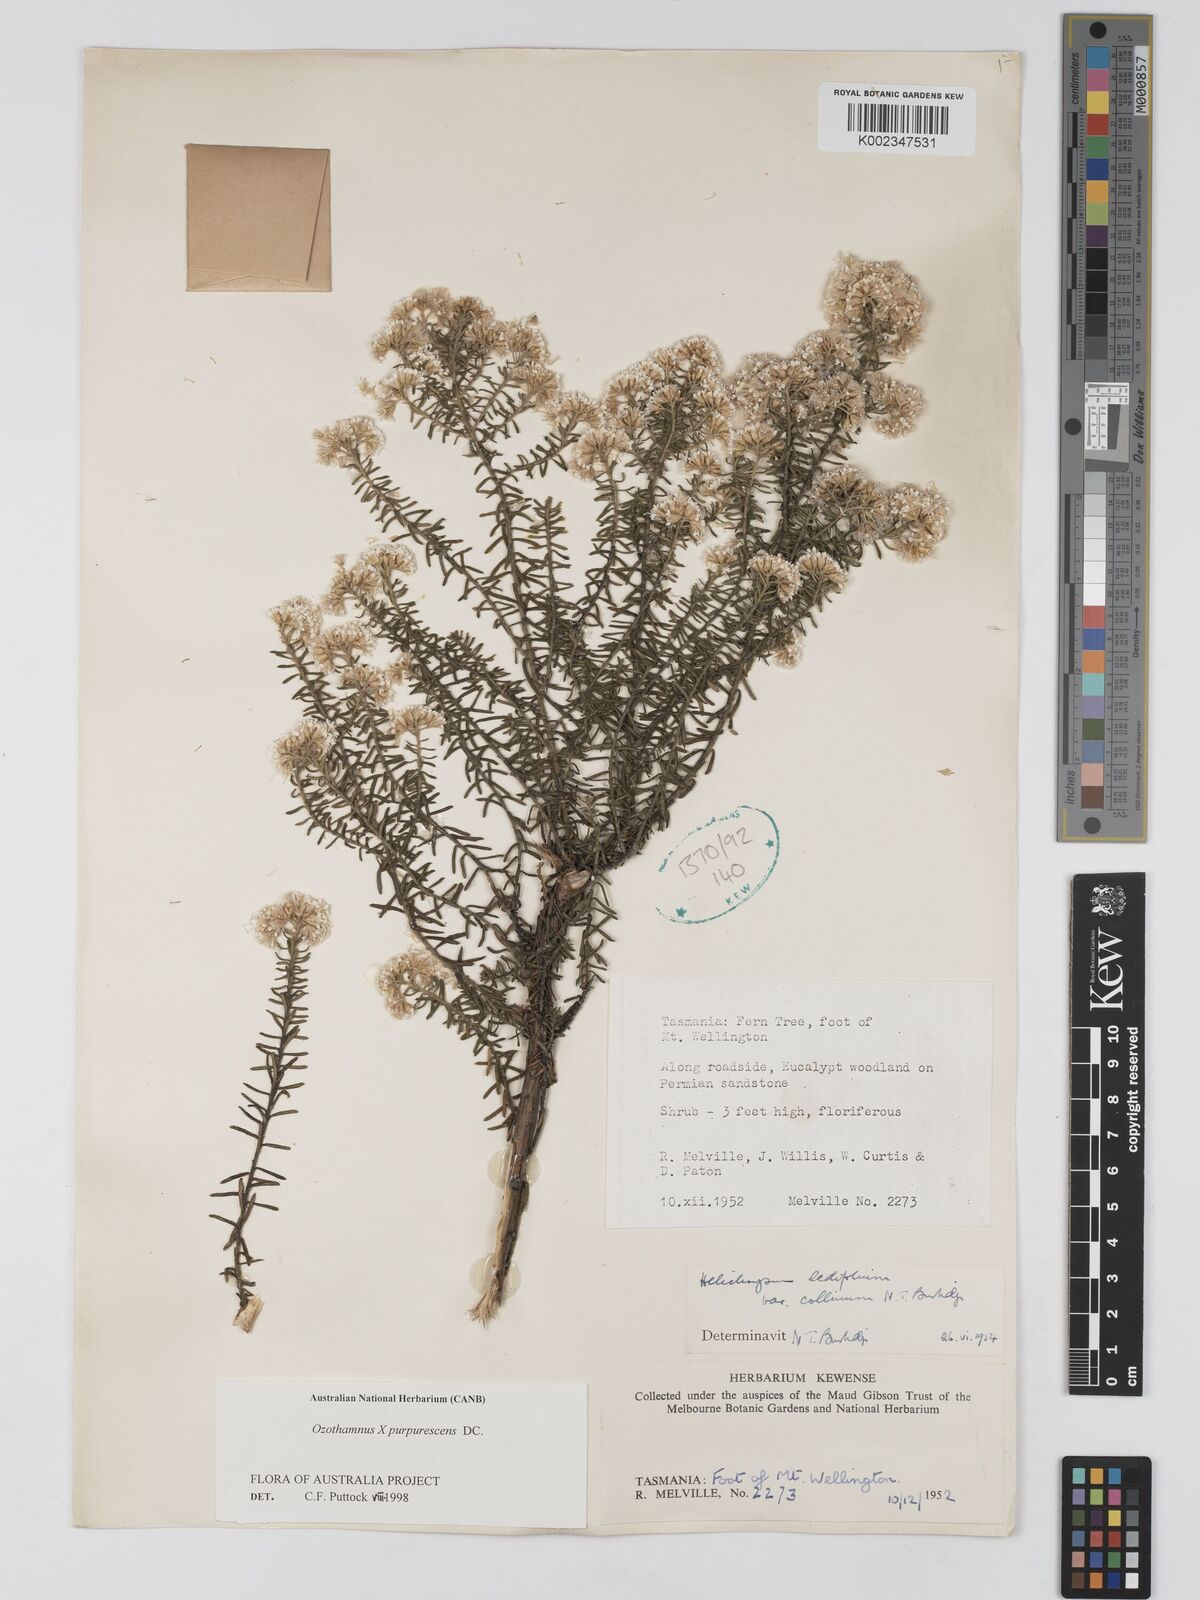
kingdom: Plantae
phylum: Tracheophyta
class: Magnoliopsida
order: Asterales
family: Asteraceae
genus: Ozothamnus
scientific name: Ozothamnus purpurascens
